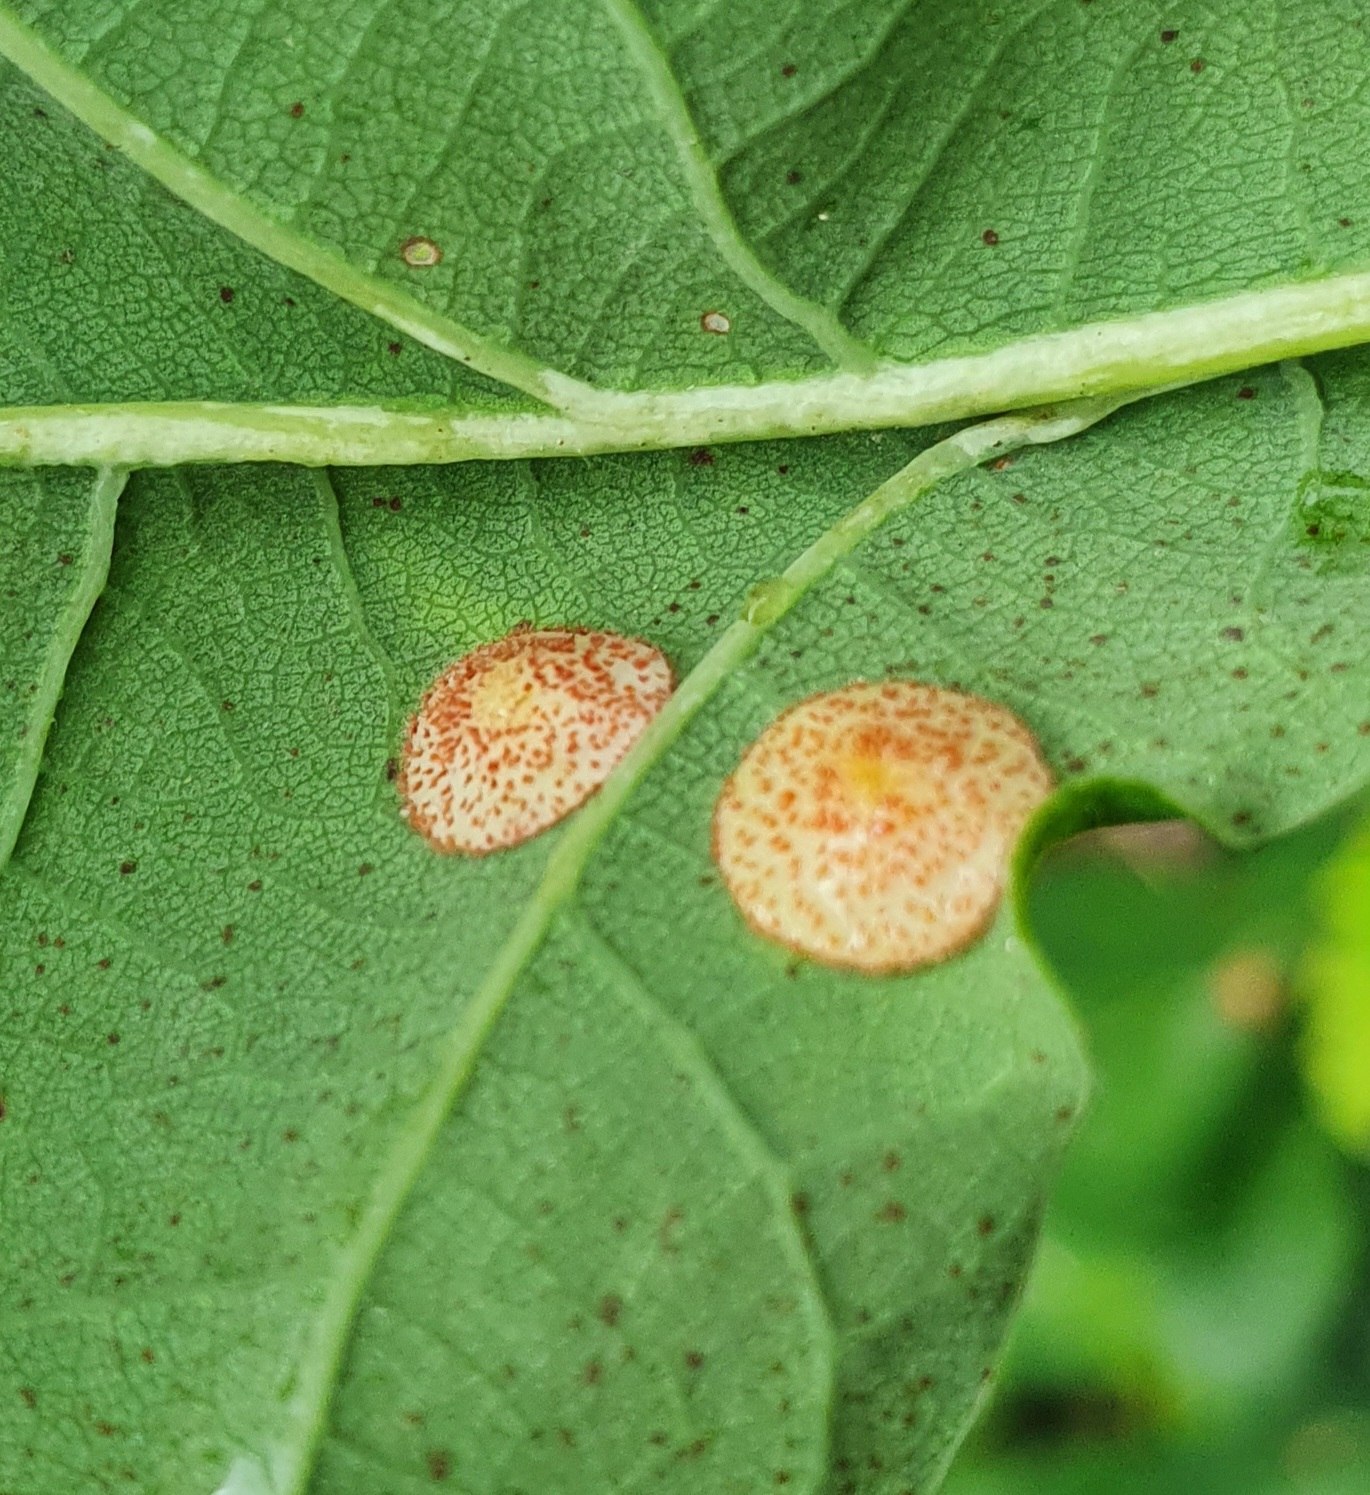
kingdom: Animalia
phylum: Arthropoda
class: Insecta
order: Hymenoptera
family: Cynipidae
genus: Neuroterus
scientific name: Neuroterus quercusbaccarum
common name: Linsegalhveps
